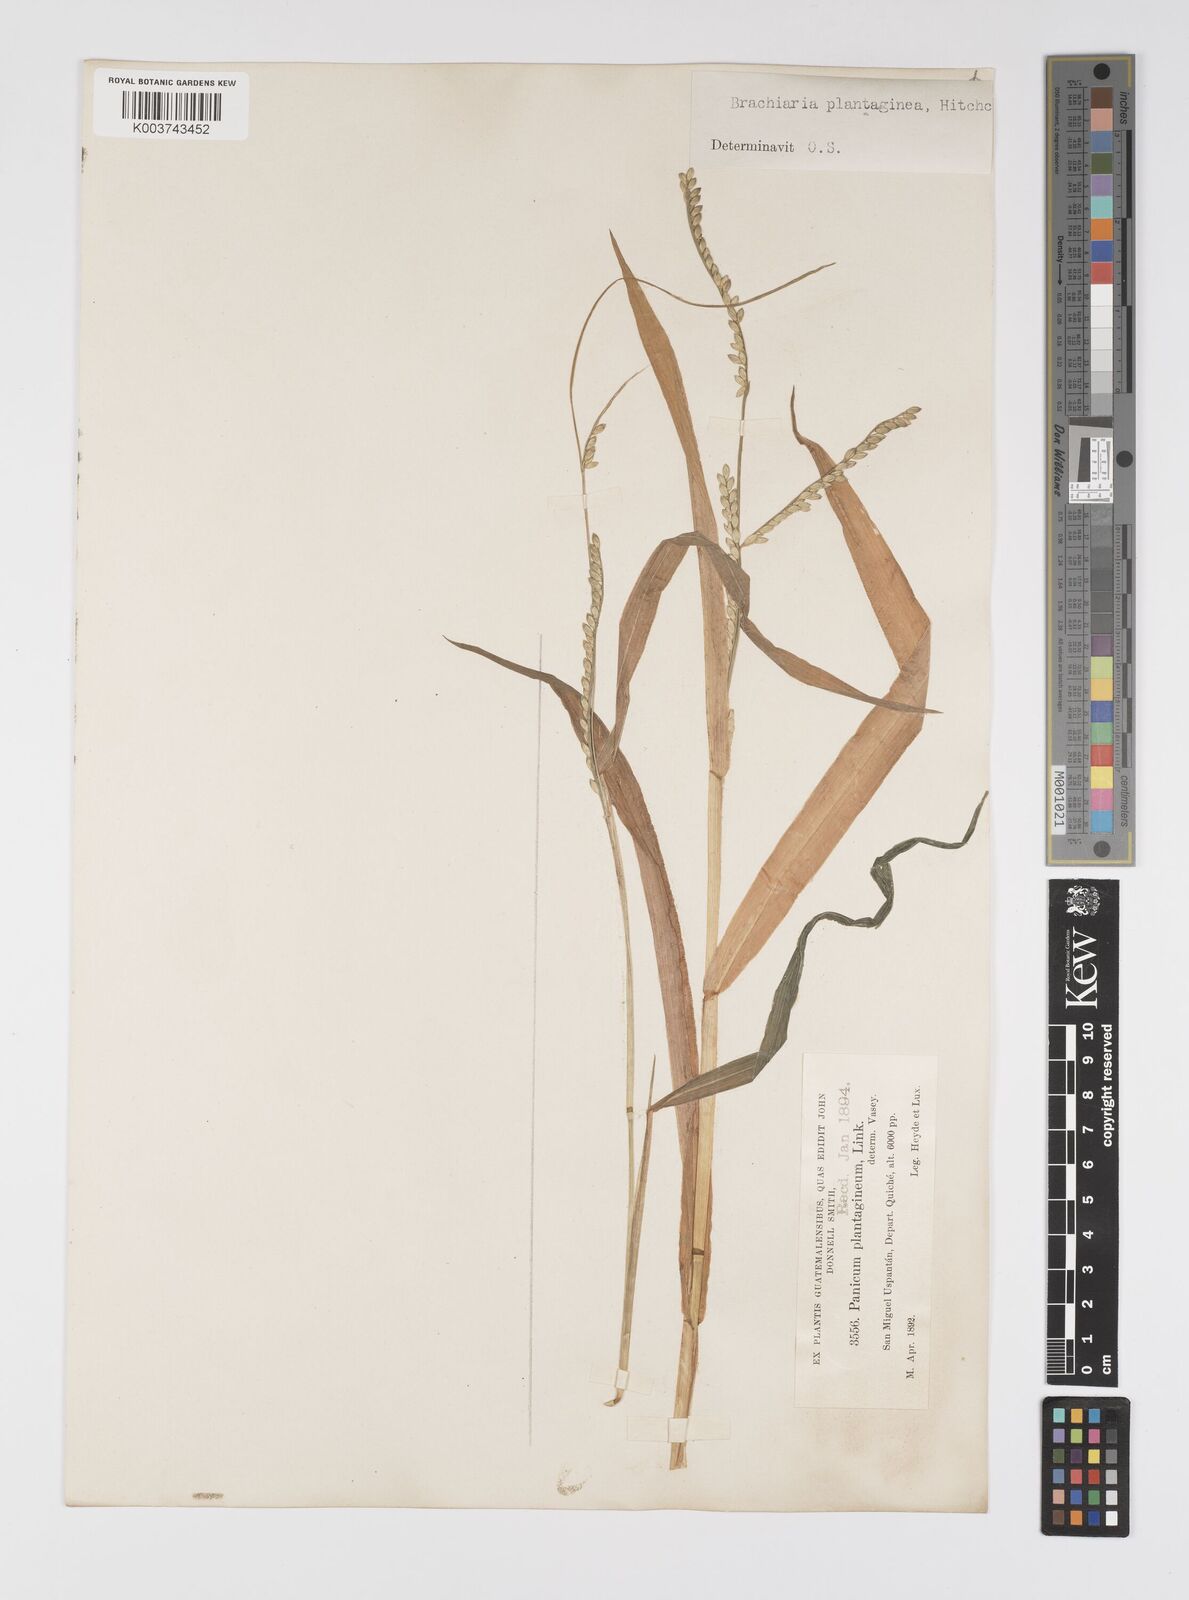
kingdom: Plantae
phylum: Tracheophyta
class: Liliopsida
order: Poales
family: Poaceae
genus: Urochloa
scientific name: Urochloa plantaginea
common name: Plantain signalgrass
